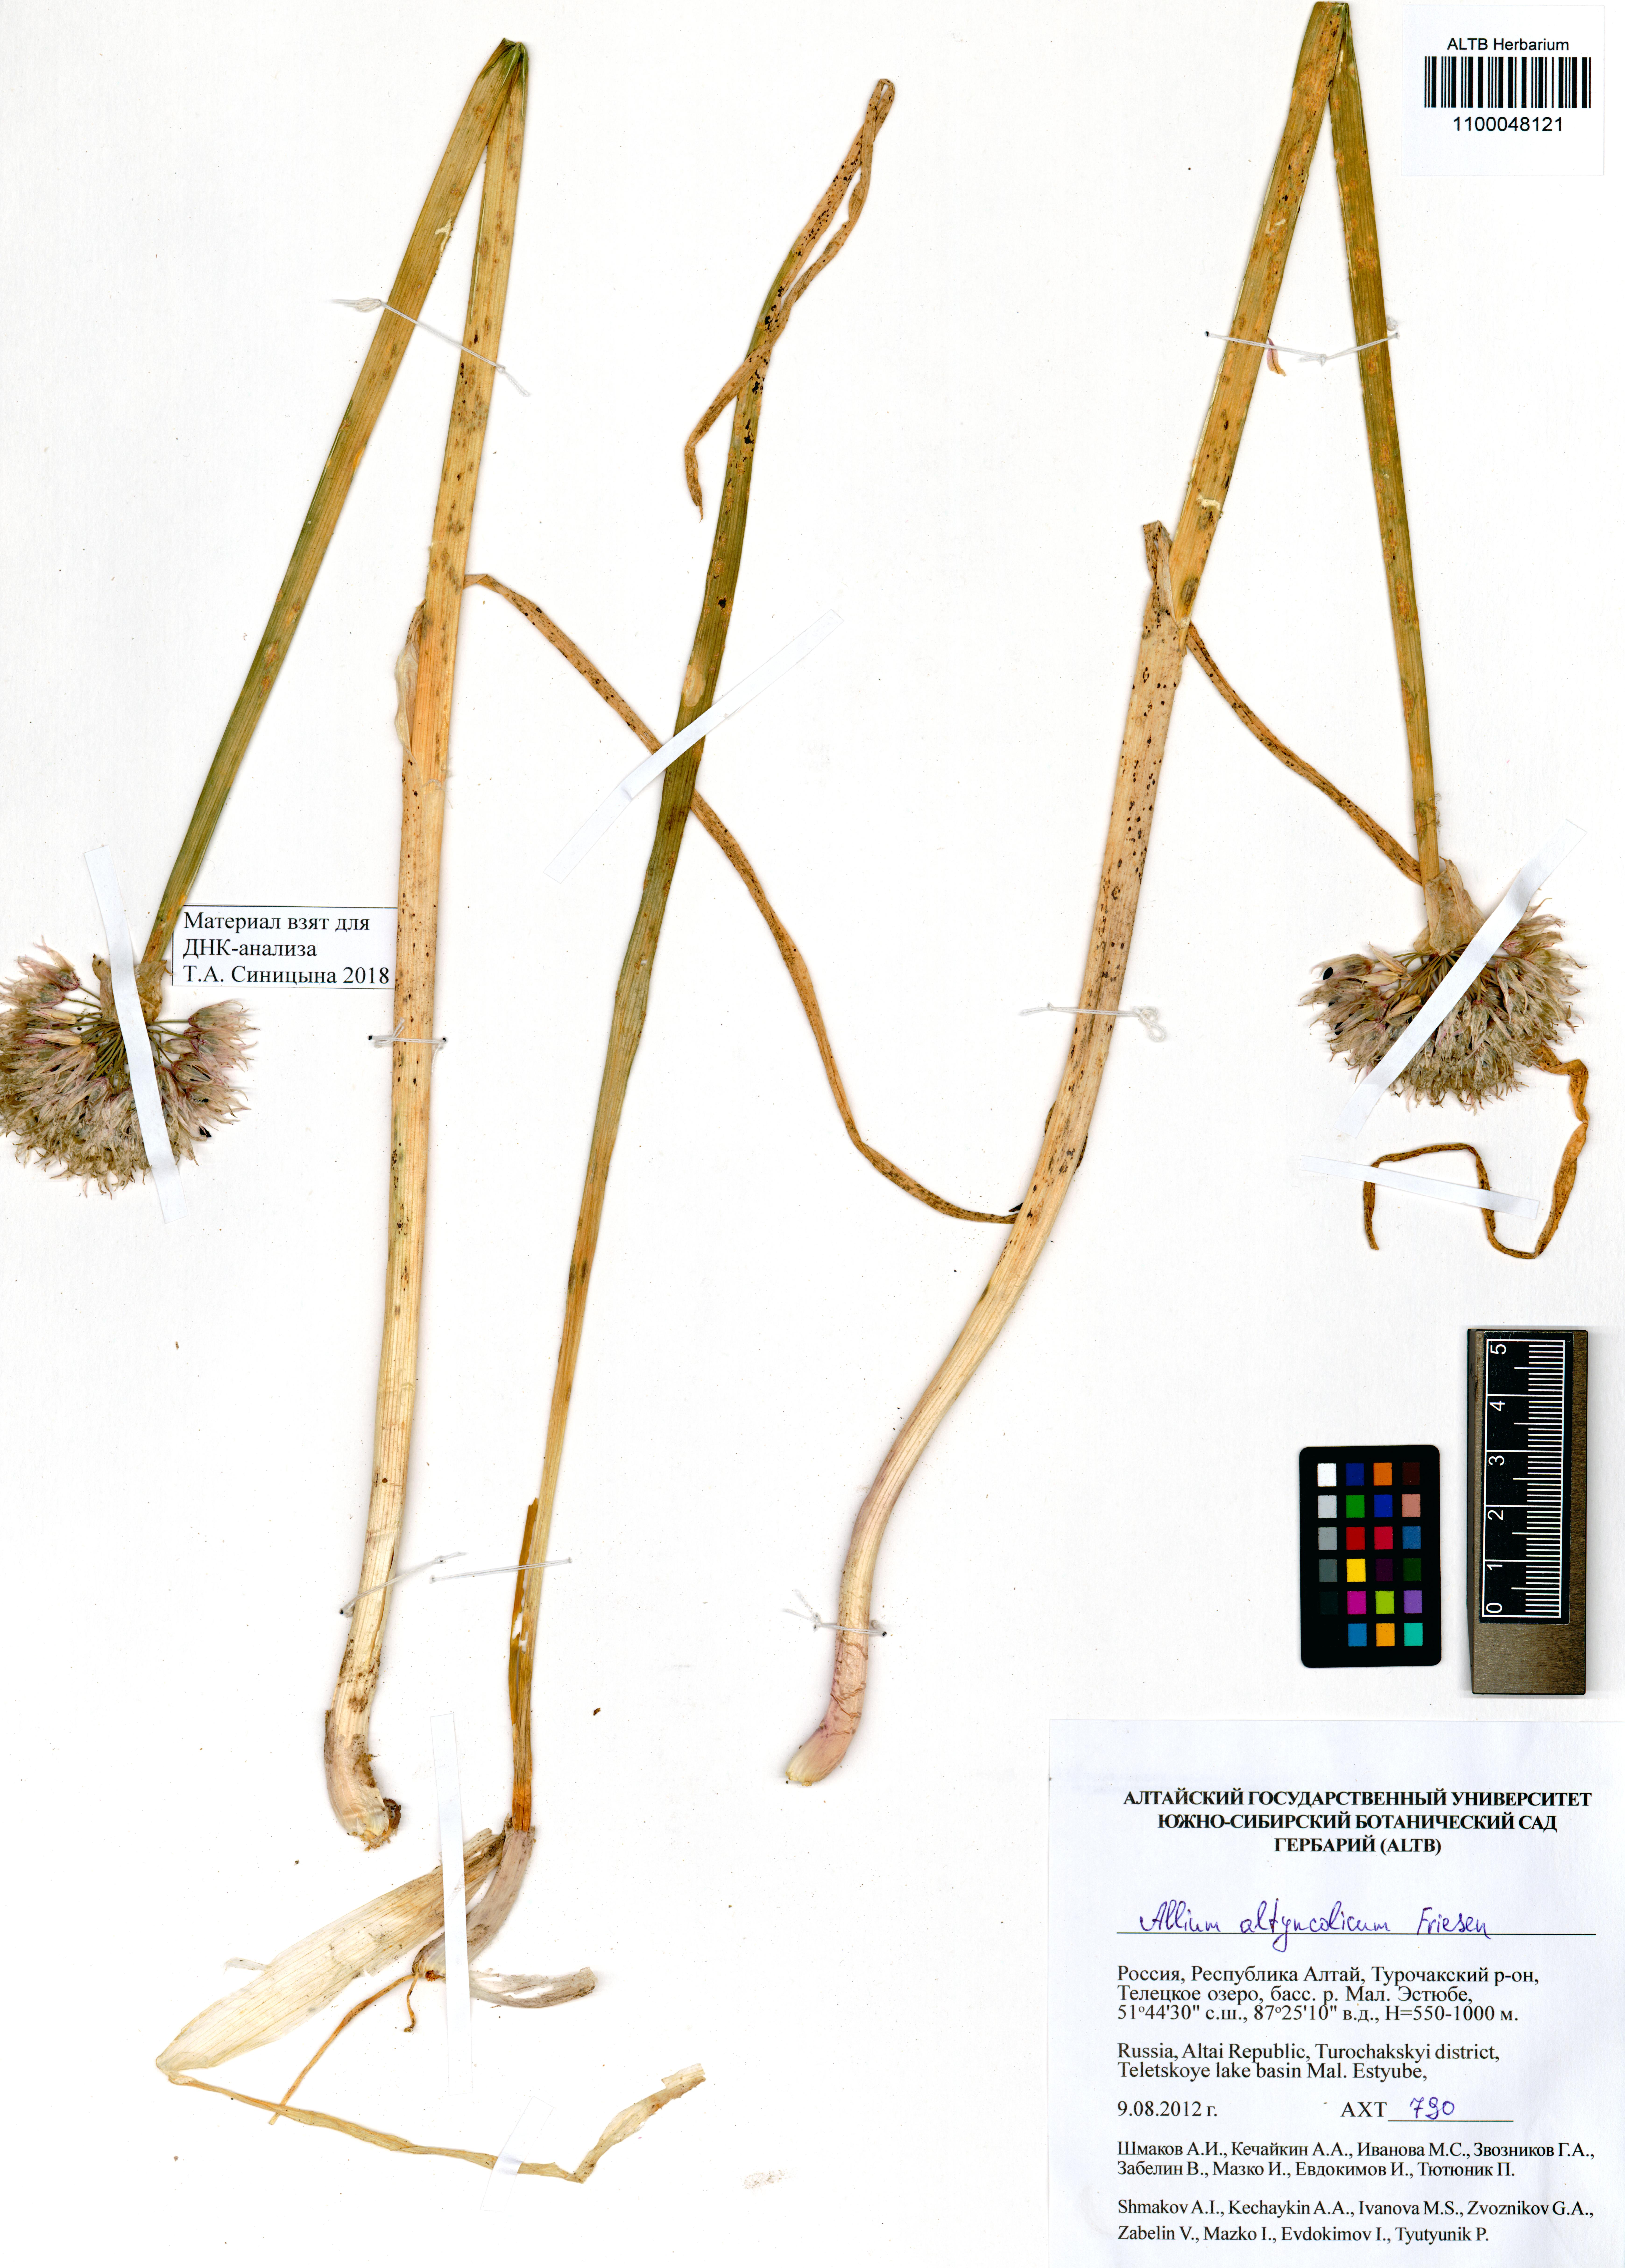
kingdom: Plantae
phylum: Tracheophyta
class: Liliopsida
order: Asparagales
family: Amaryllidaceae
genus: Allium
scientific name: Allium altyncolicum
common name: Altynkol chive
